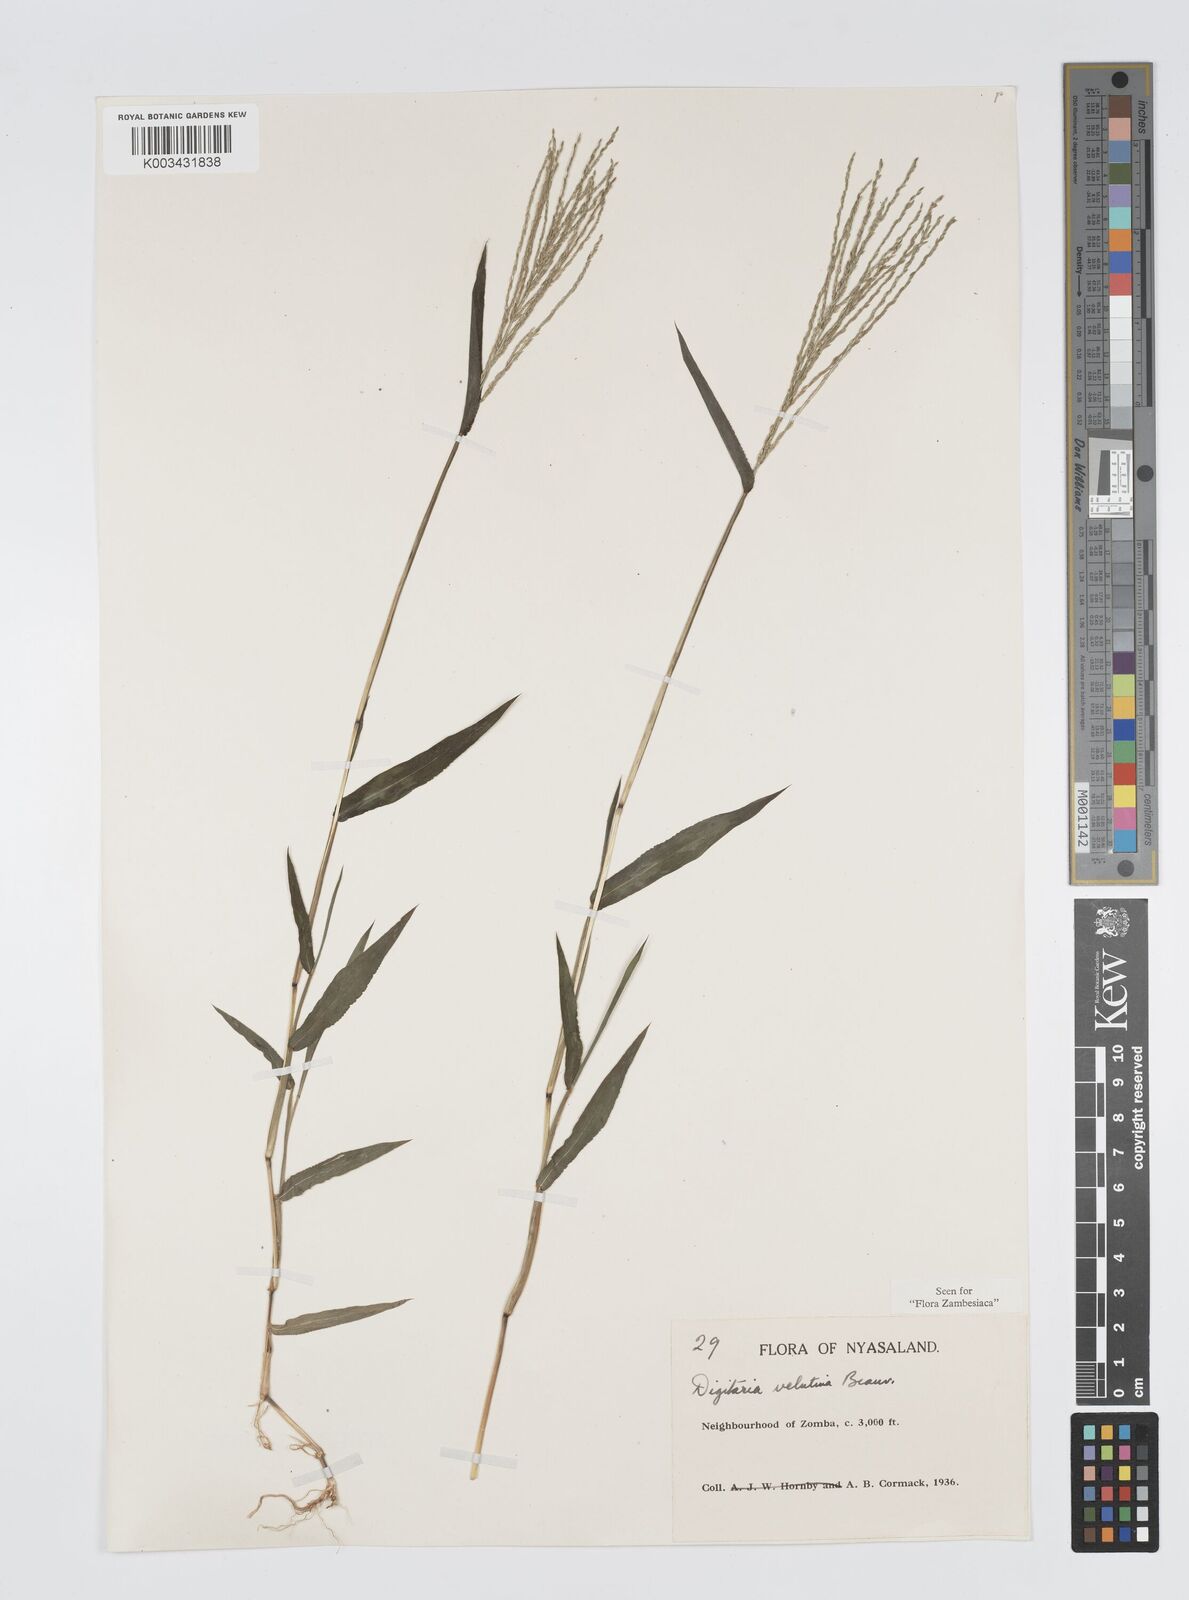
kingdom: Plantae
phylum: Tracheophyta
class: Liliopsida
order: Poales
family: Poaceae
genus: Digitaria
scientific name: Digitaria velutina
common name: Long-plume finger grass
